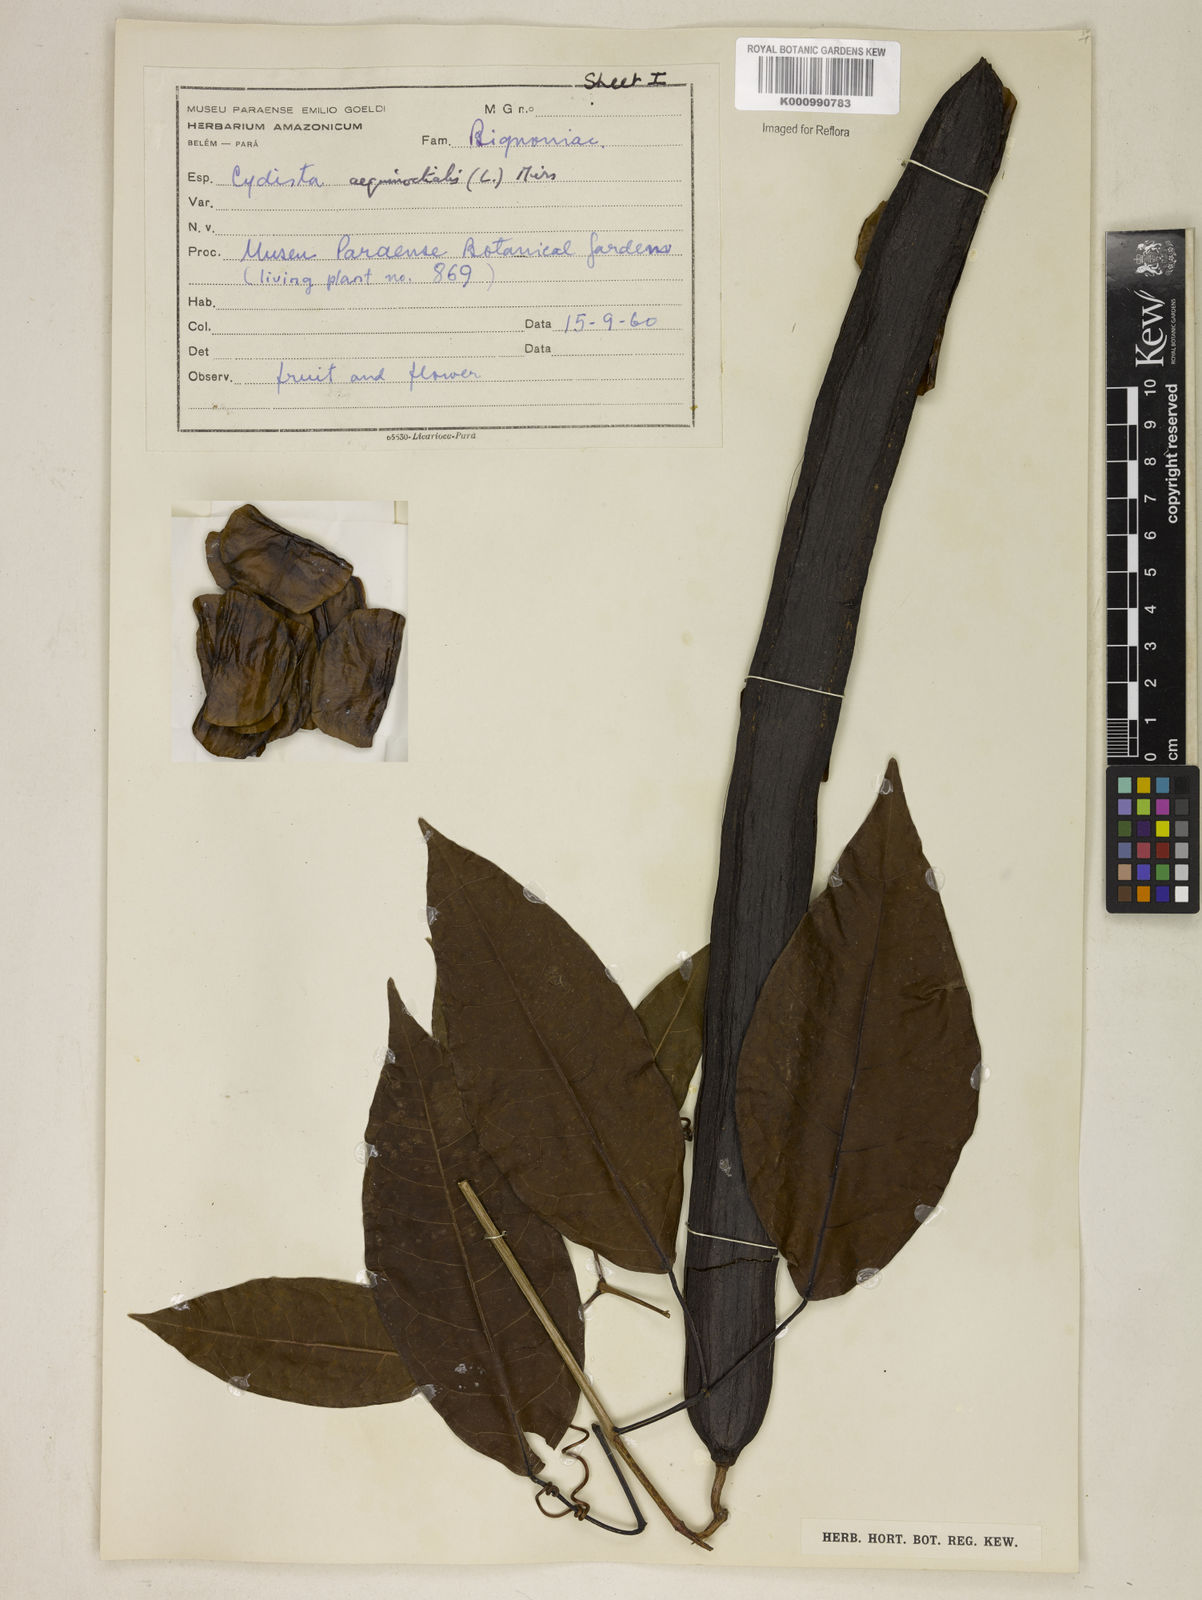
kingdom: Plantae
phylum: Tracheophyta
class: Magnoliopsida
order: Lamiales
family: Bignoniaceae
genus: Bignonia
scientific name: Bignonia aequinoctialis
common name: Garlicvine
